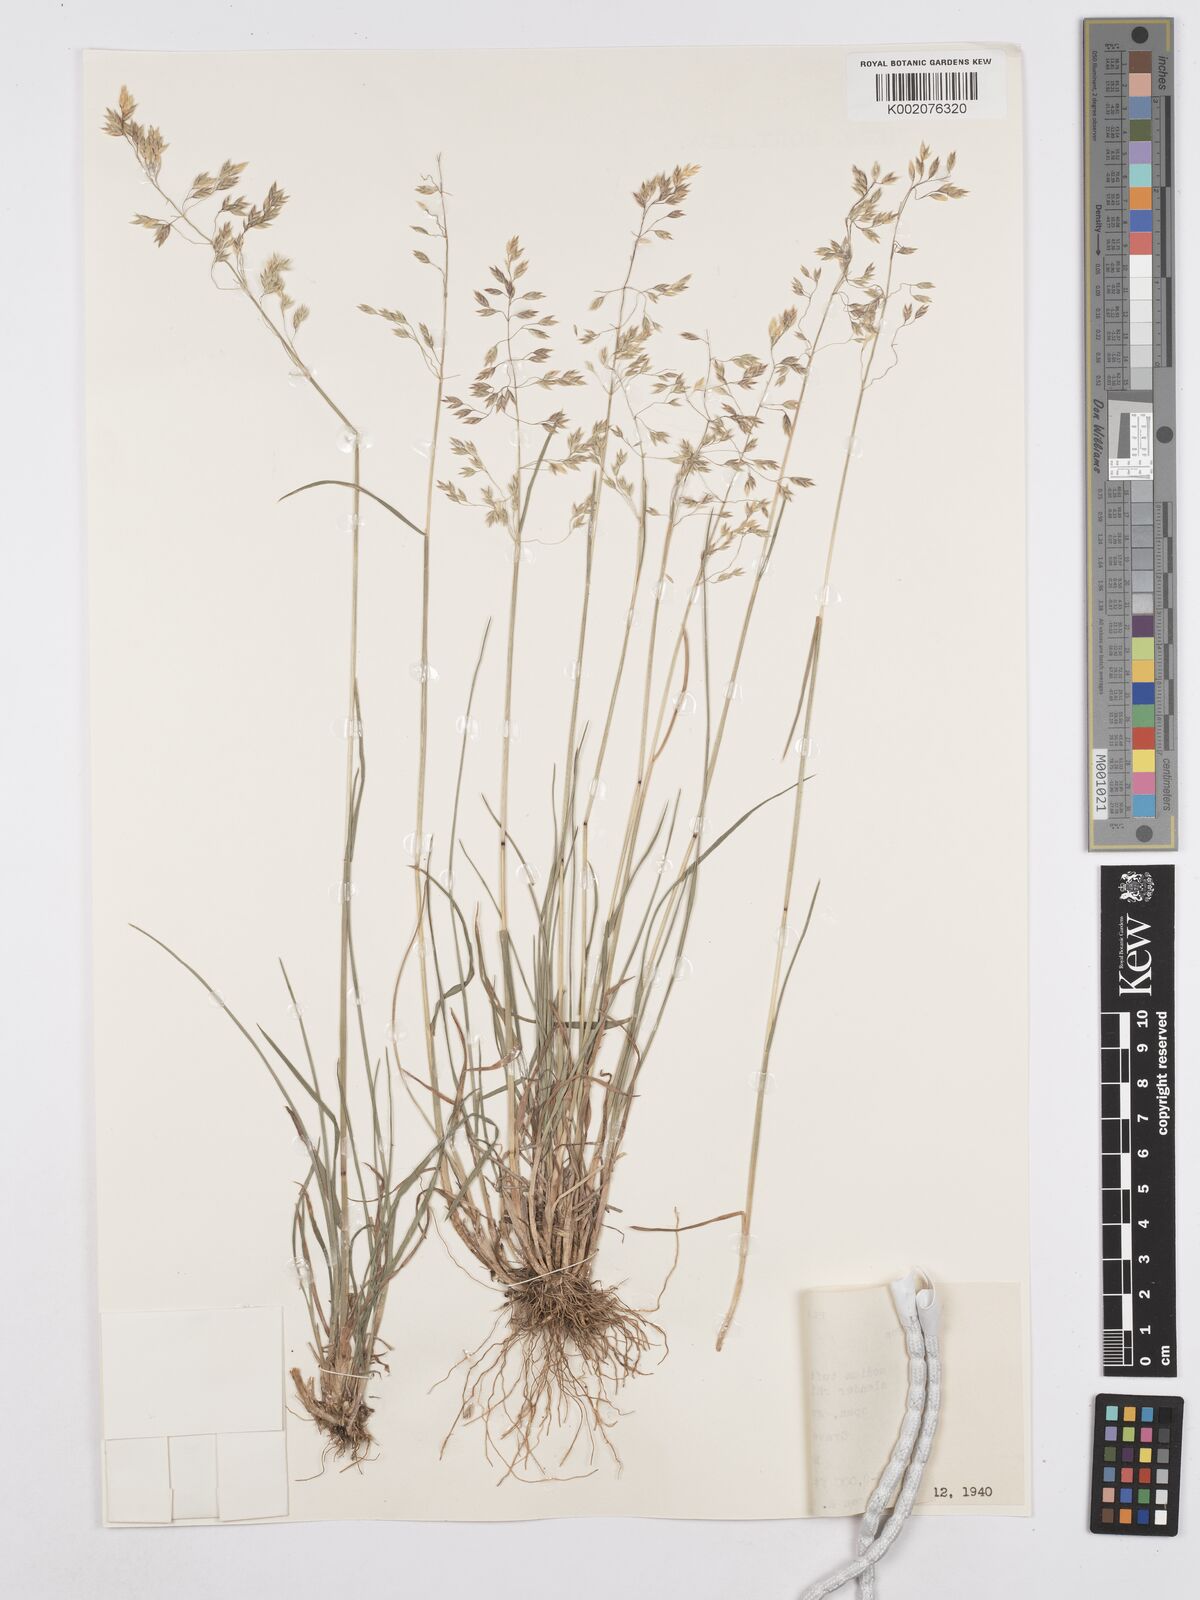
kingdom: Plantae
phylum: Tracheophyta
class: Liliopsida
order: Poales
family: Poaceae
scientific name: Poaceae
